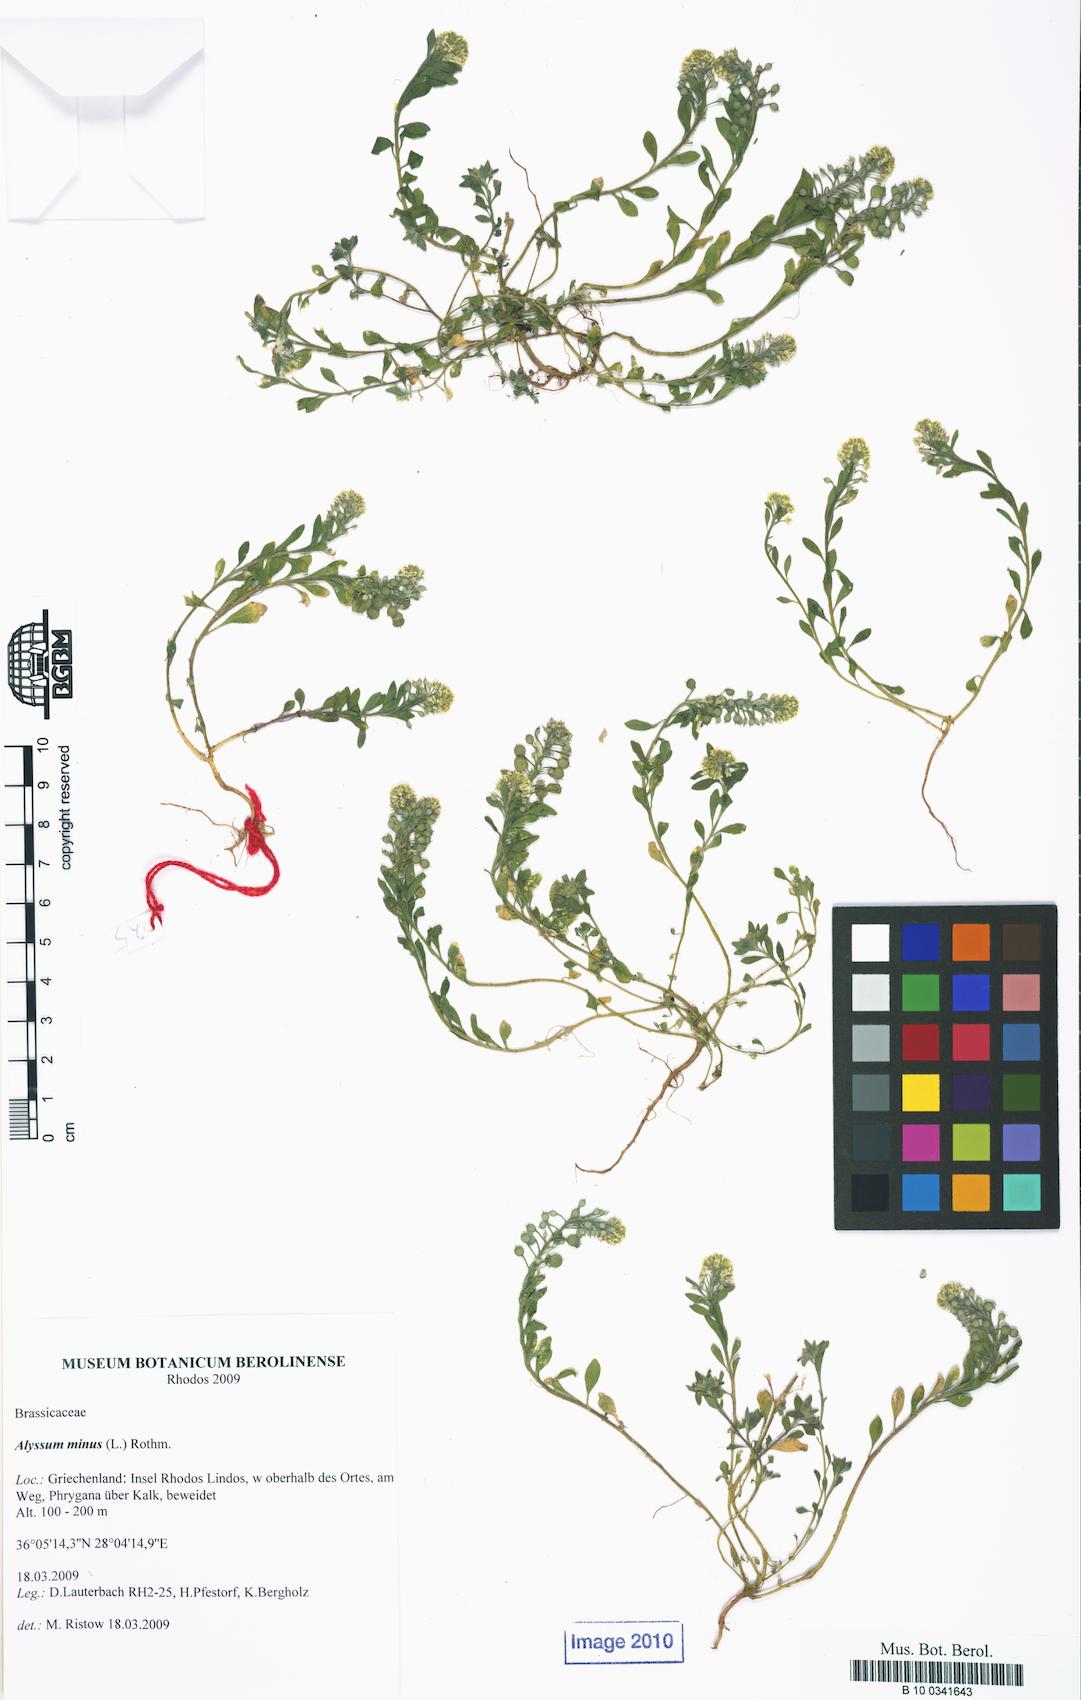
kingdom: Plantae
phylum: Tracheophyta
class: Magnoliopsida
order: Brassicales
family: Brassicaceae
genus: Alyssum
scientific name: Alyssum simplex
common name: Alyssum
